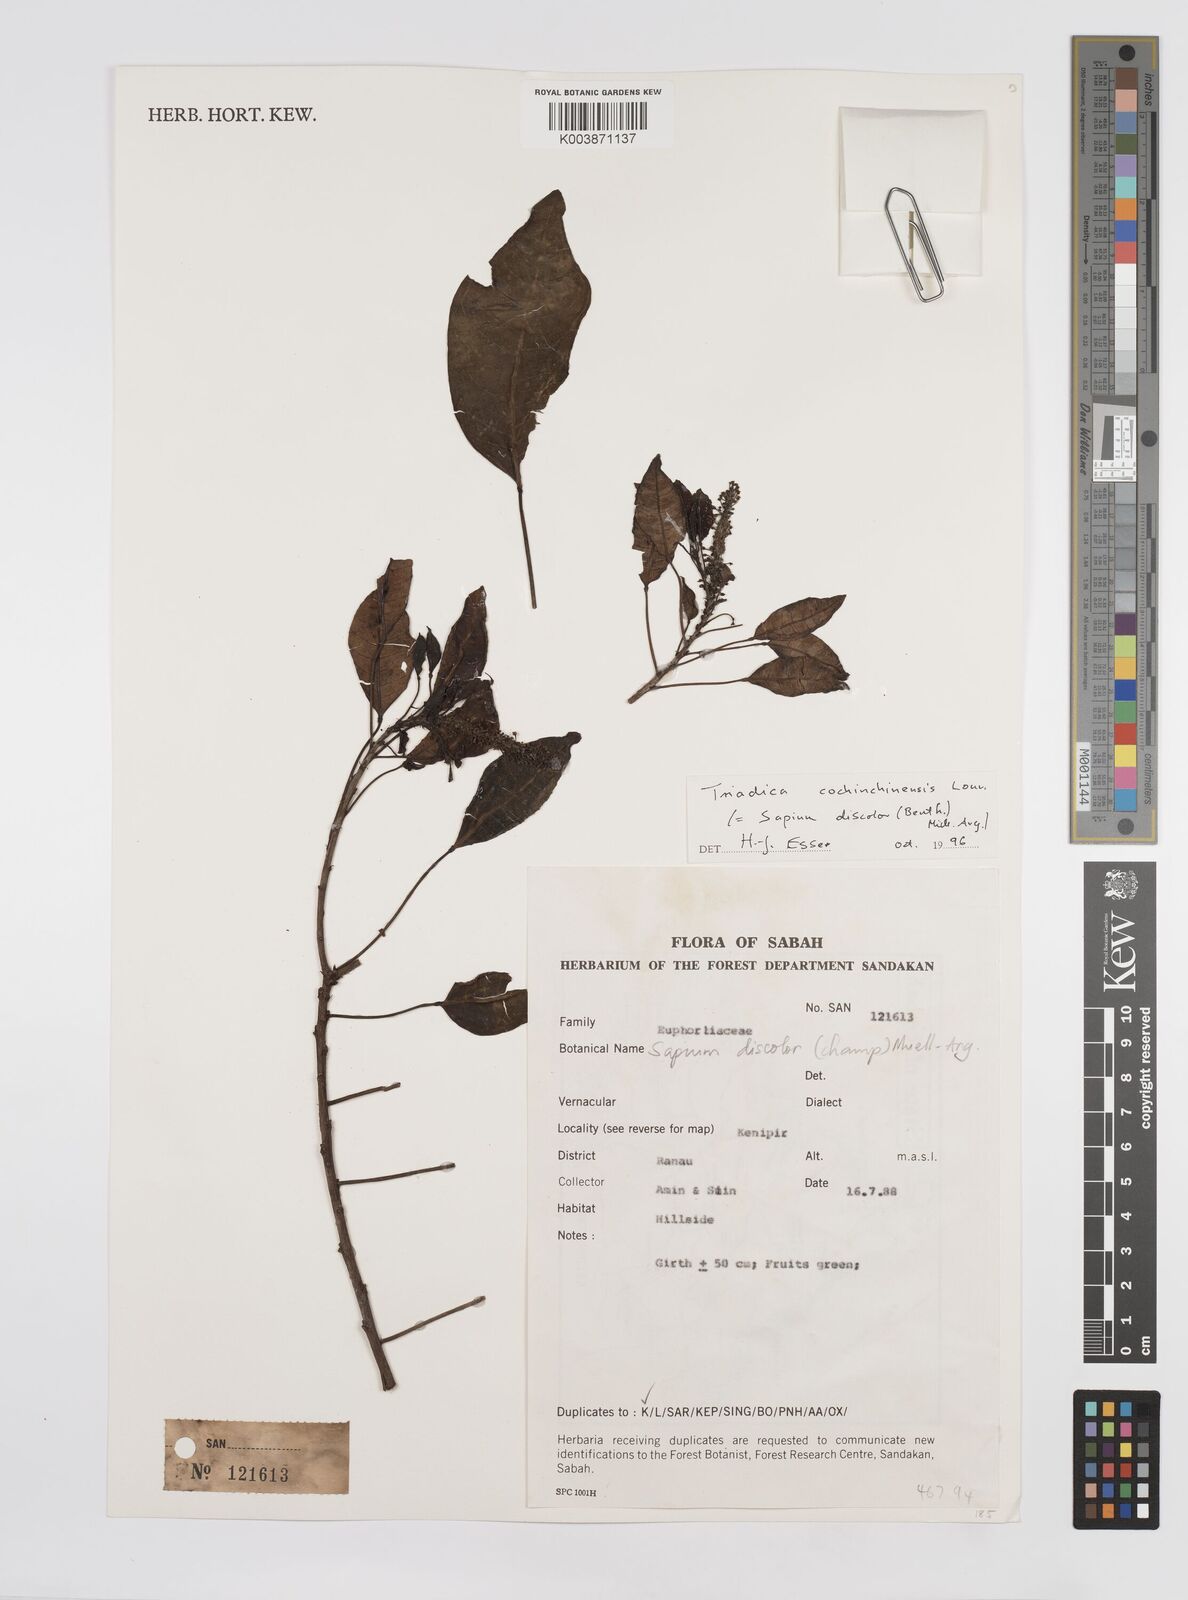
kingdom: Plantae
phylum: Tracheophyta
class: Magnoliopsida
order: Malpighiales
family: Euphorbiaceae
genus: Triadica
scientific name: Triadica cochinchinensis
